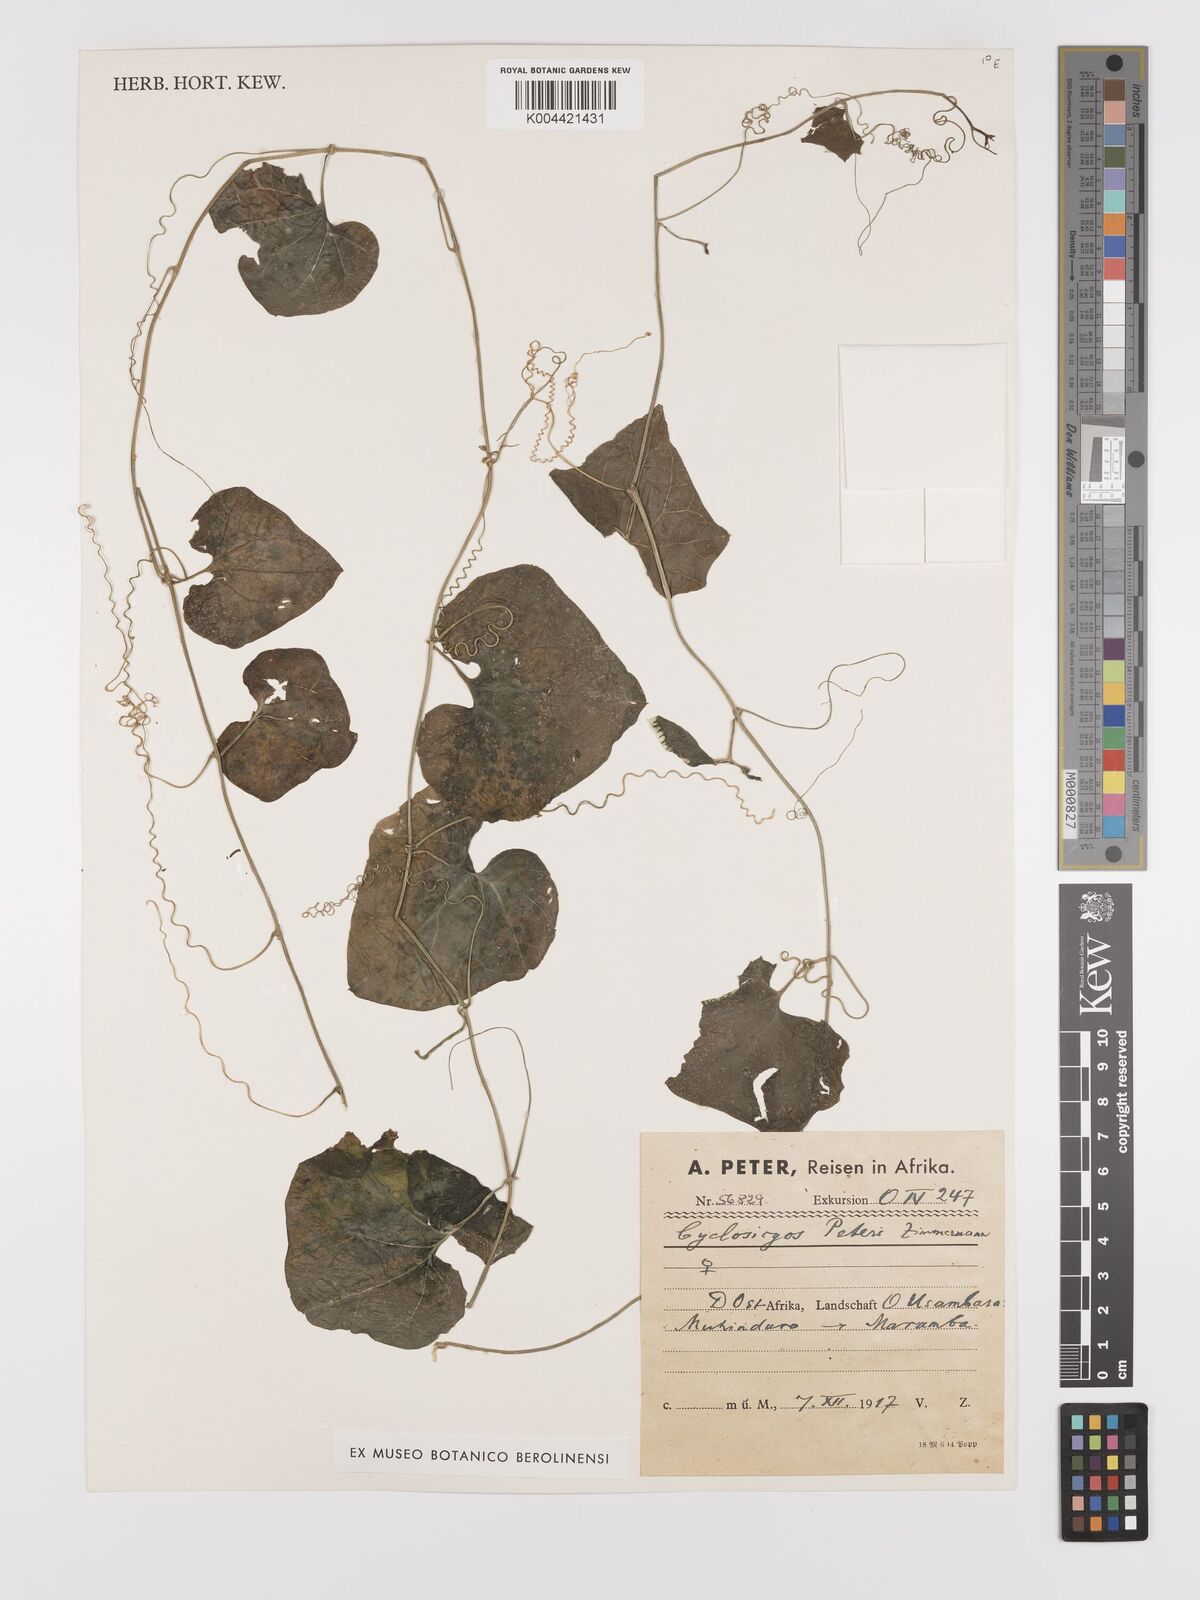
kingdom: Plantae
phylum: Tracheophyta
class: Magnoliopsida
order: Cucurbitales
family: Cucurbitaceae
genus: Cyclantheropsis
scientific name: Cyclantheropsis parviflora
